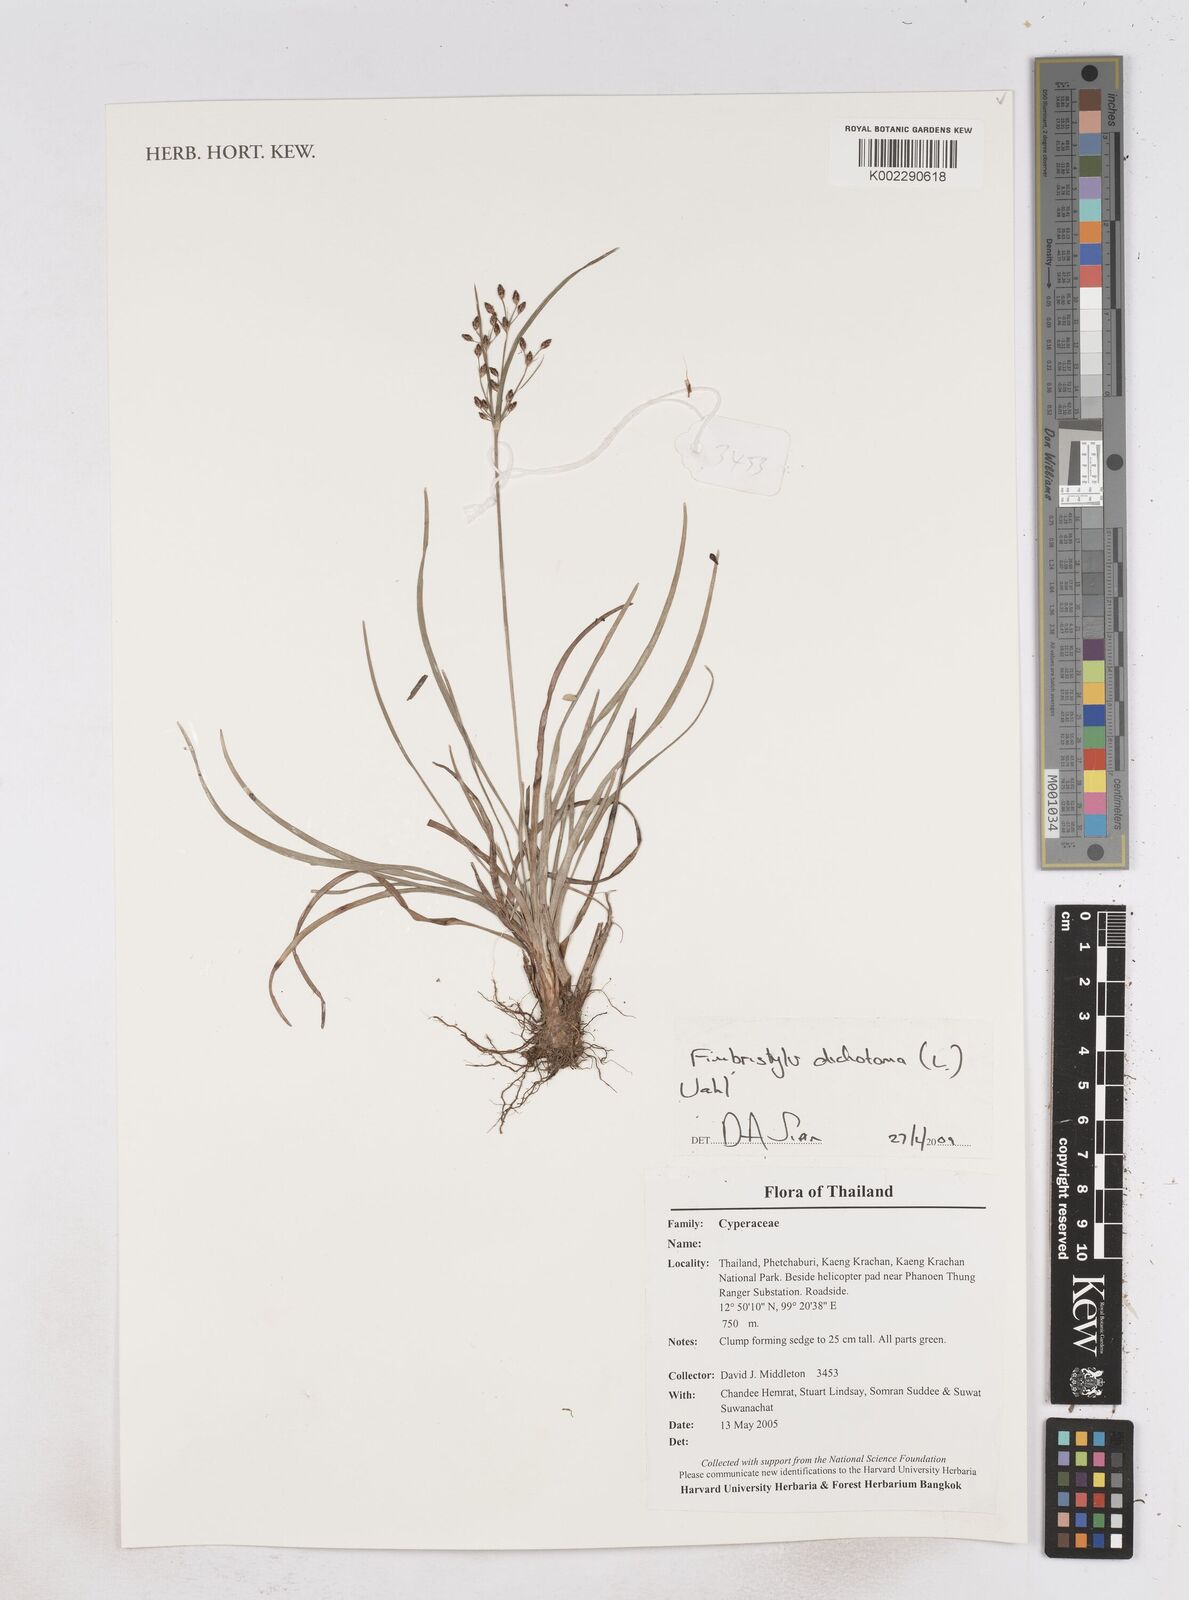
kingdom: Plantae
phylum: Tracheophyta
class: Liliopsida
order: Poales
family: Cyperaceae
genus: Fimbristylis
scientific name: Fimbristylis dichotoma
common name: Forked fimbry
